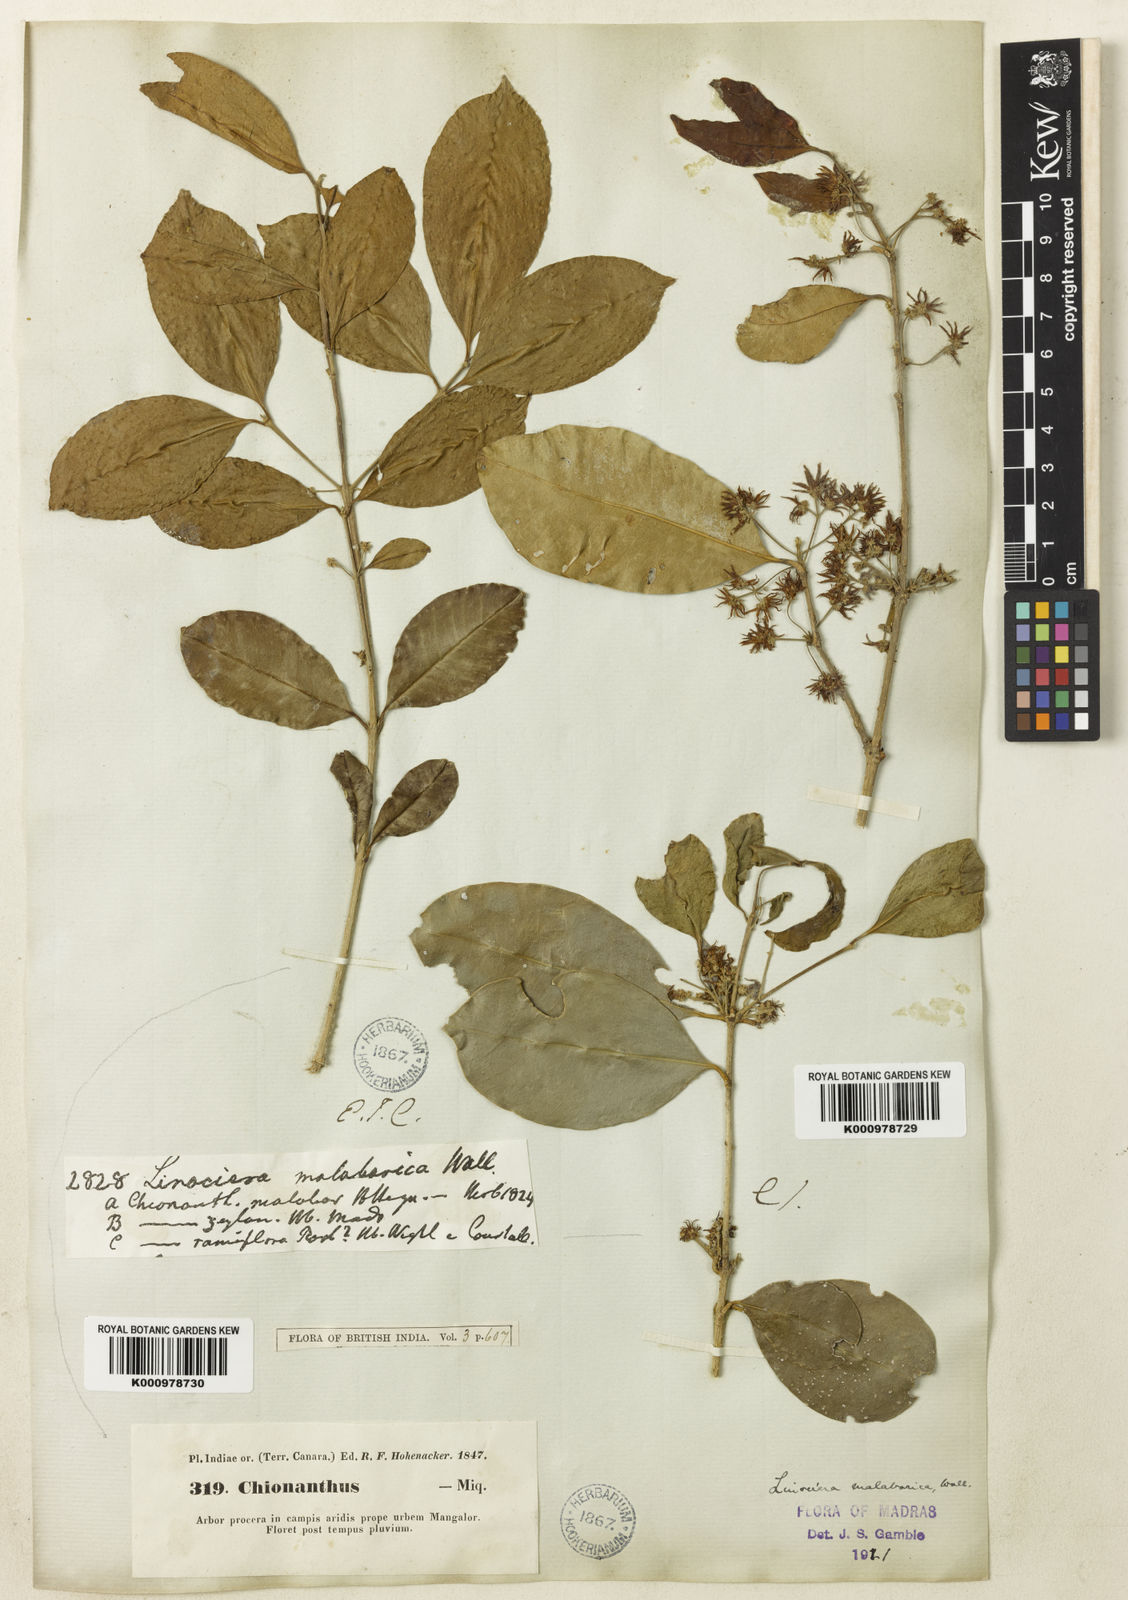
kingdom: Plantae
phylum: Tracheophyta
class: Magnoliopsida
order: Lamiales
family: Oleaceae
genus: Chionanthus
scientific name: Chionanthus mala-elengi
